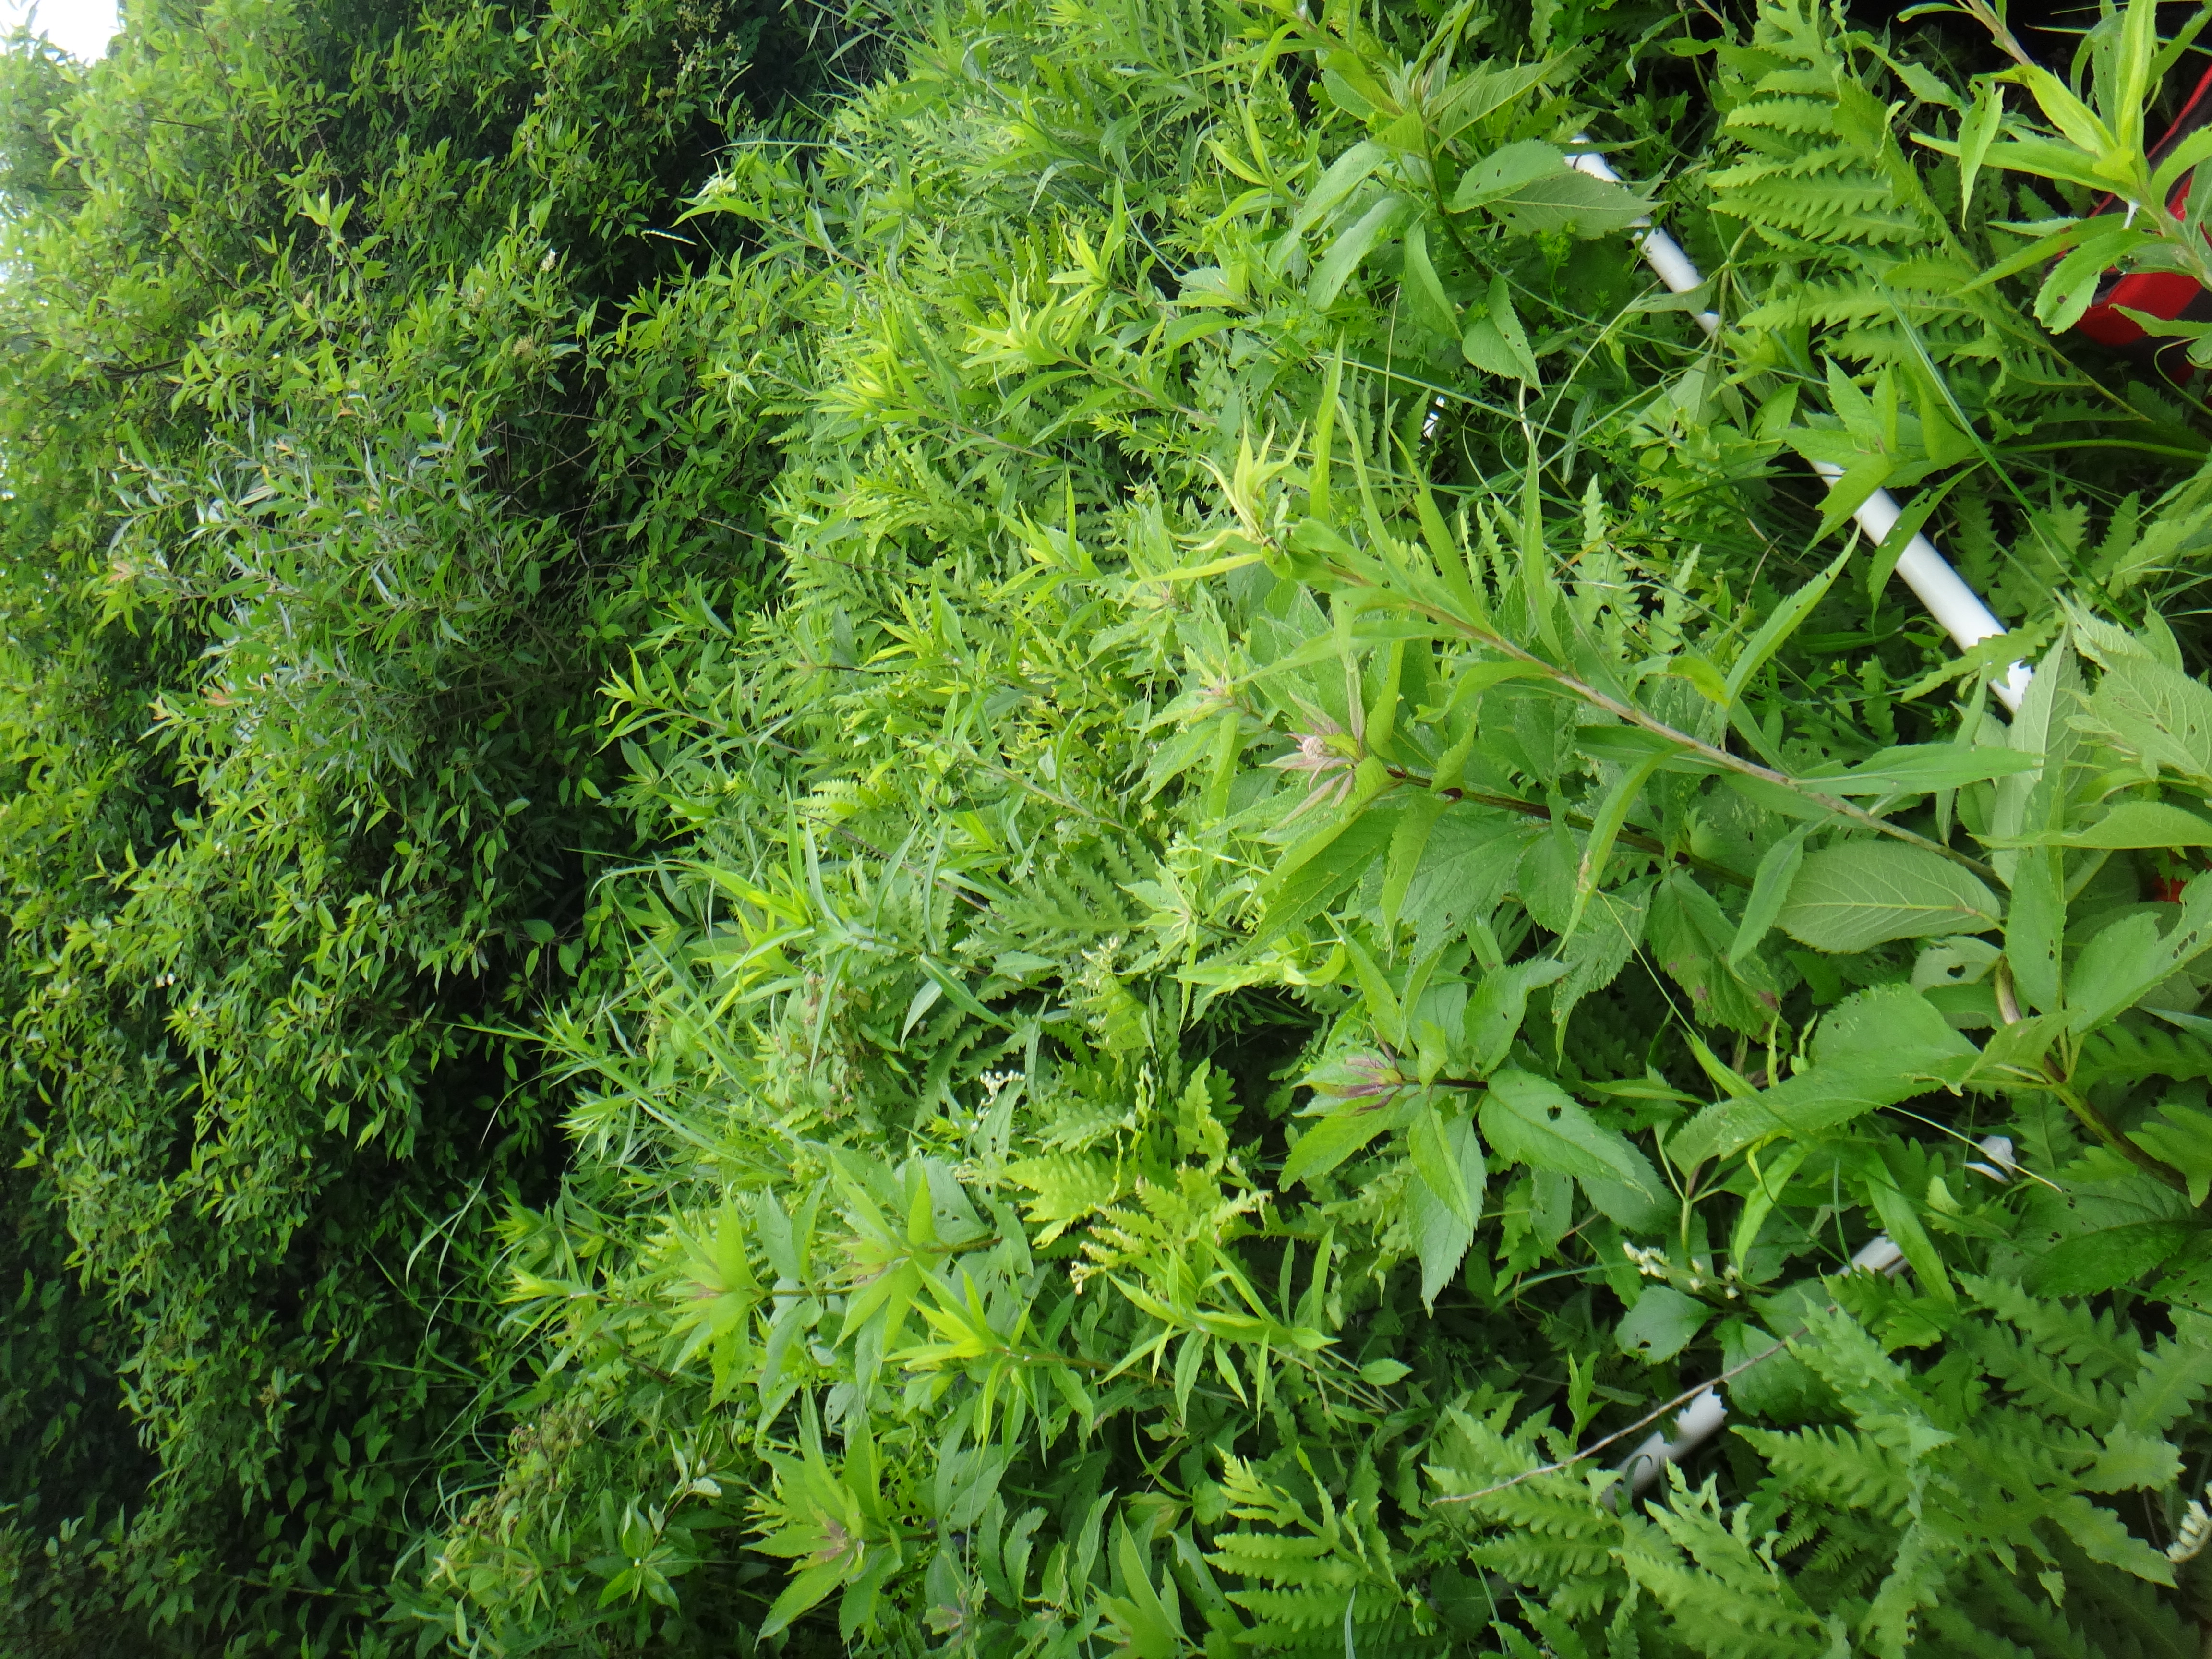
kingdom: Plantae
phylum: Tracheophyta
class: Polypodiopsida
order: Polypodiales
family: Onocleaceae
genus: Onoclea
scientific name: Onoclea sensibilis
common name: Sensitive fern
